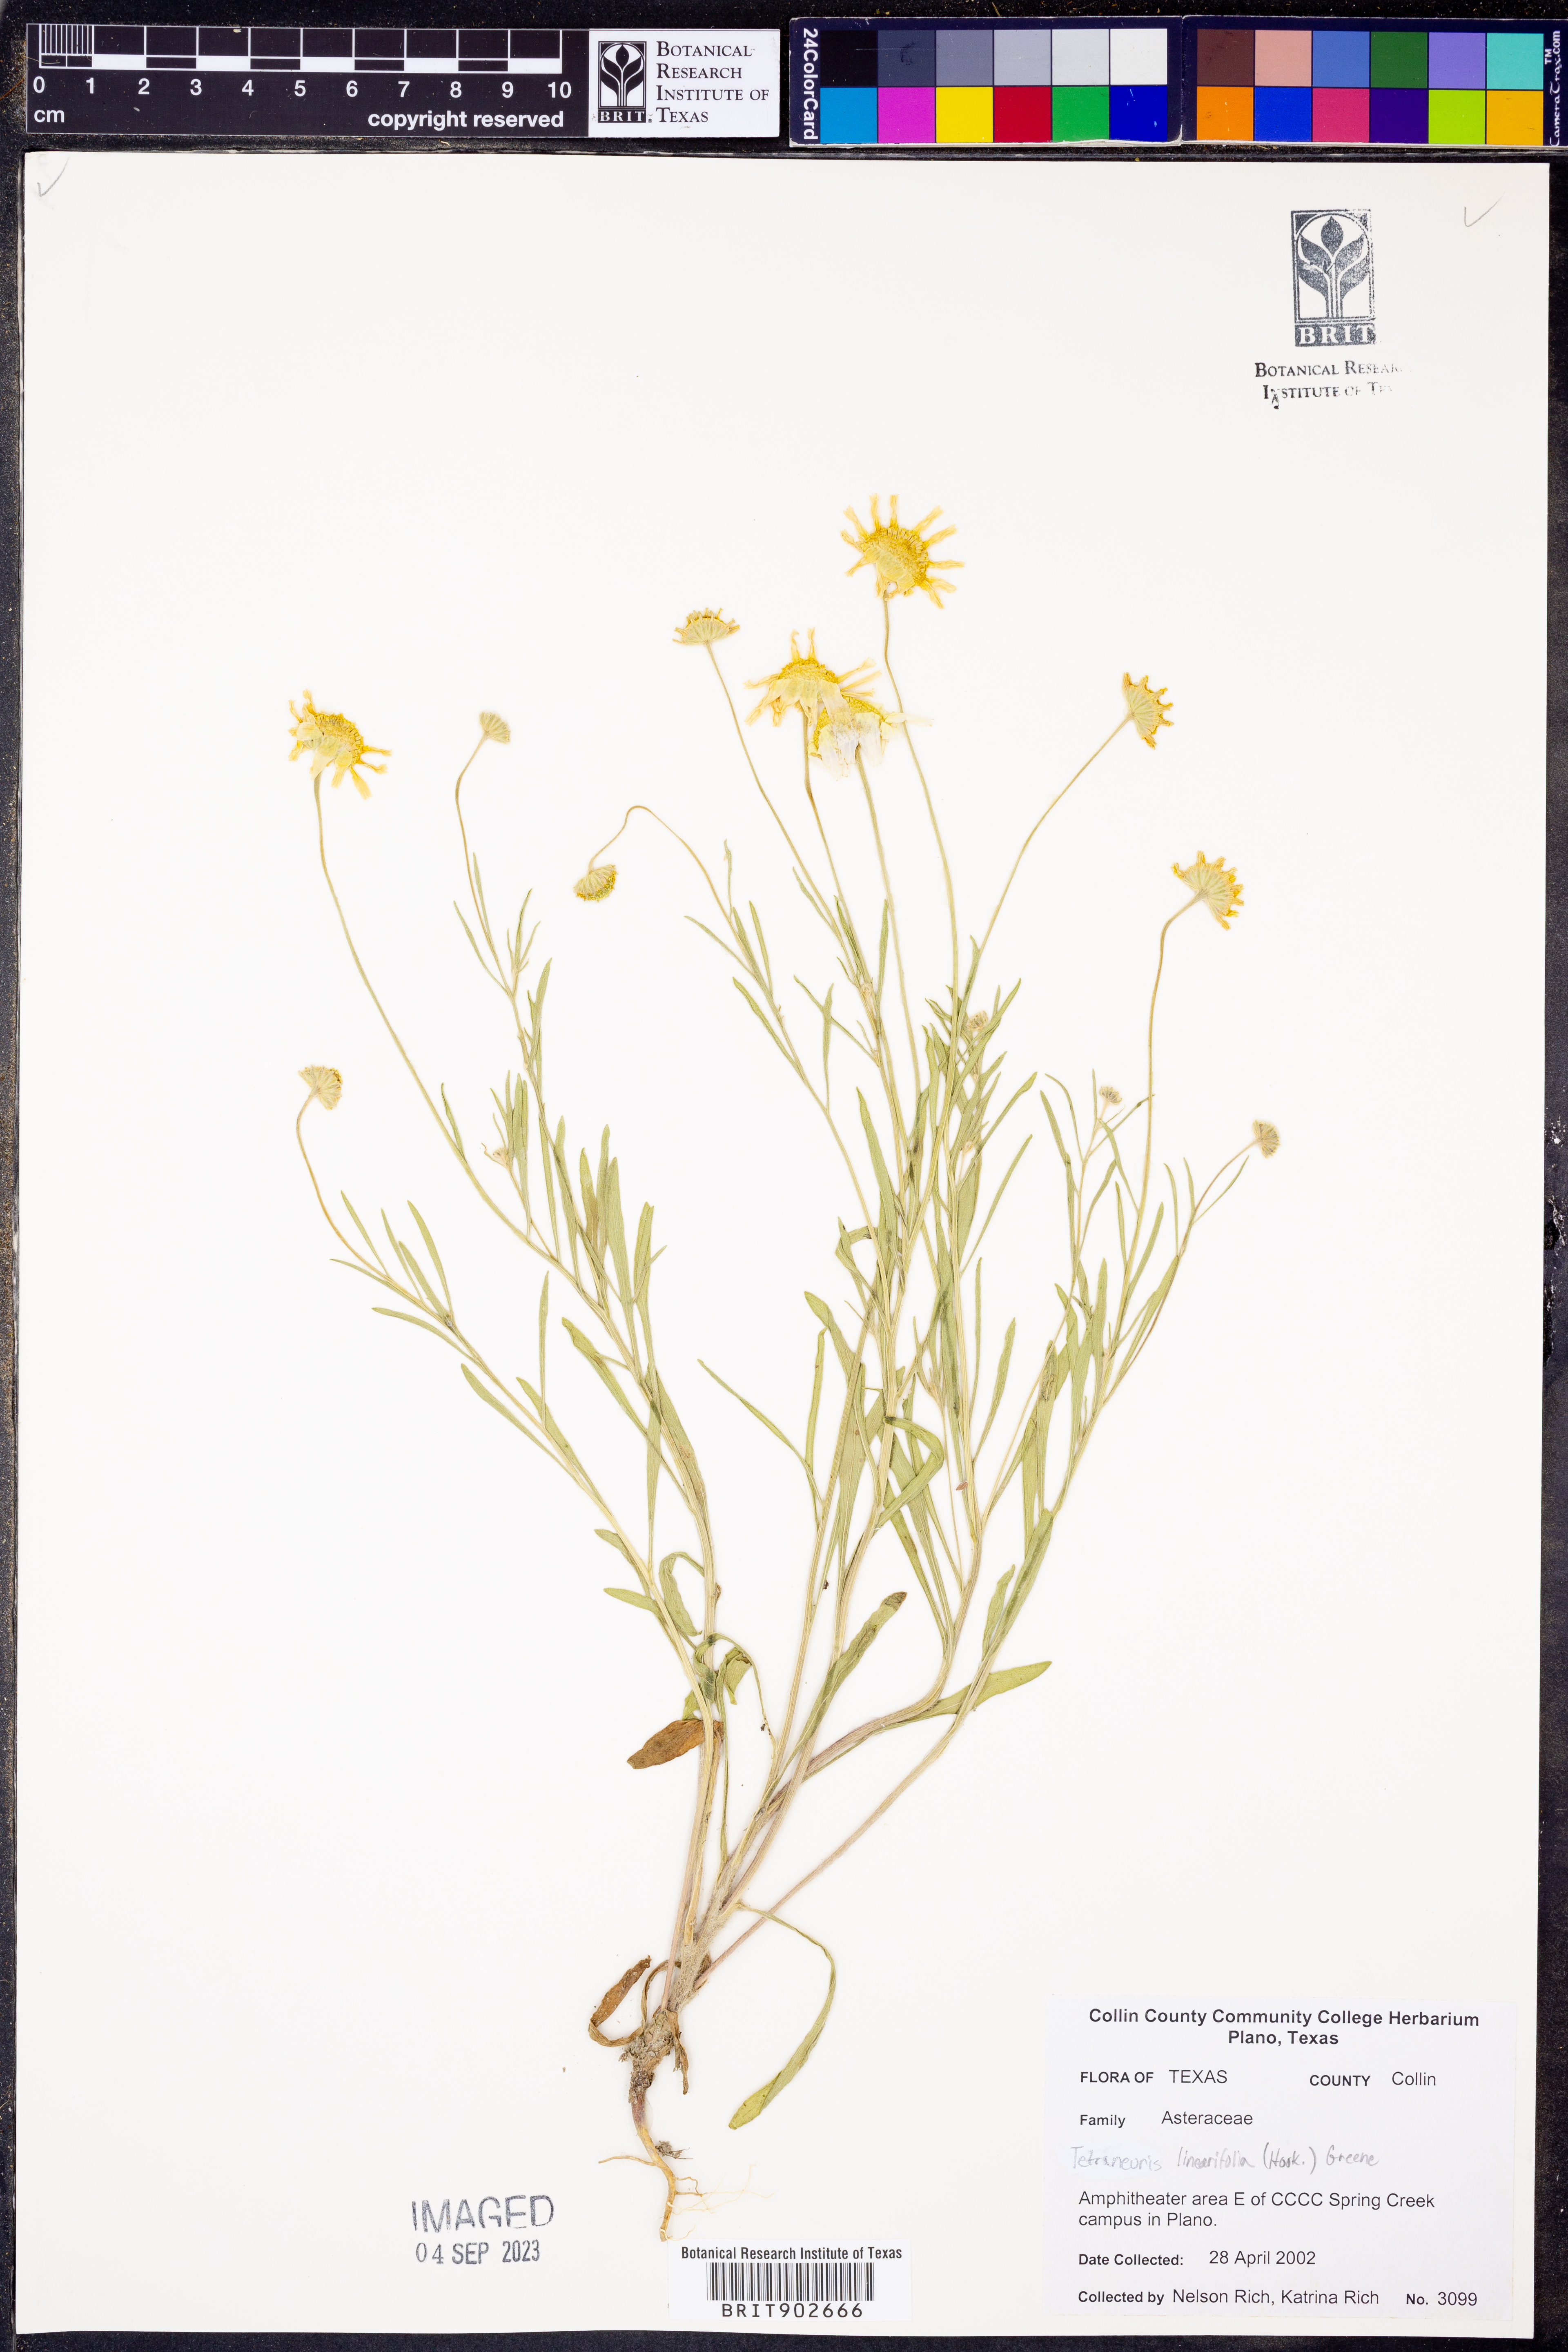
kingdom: Plantae
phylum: Tracheophyta
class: Magnoliopsida
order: Asterales
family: Asteraceae
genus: Tetraneuris
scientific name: Tetraneuris linearifolia
